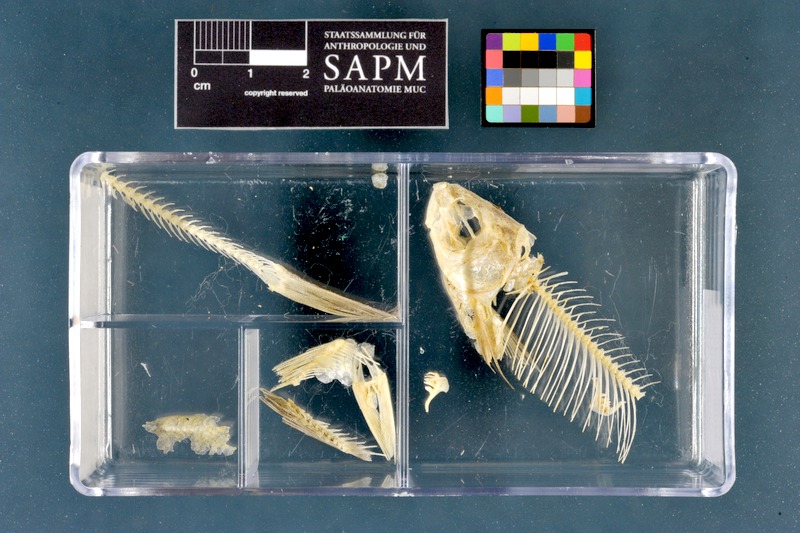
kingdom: Animalia
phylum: Chordata
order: Cypriniformes
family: Cyprinidae
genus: Rutilus
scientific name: Rutilus rutilus
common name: Roach
